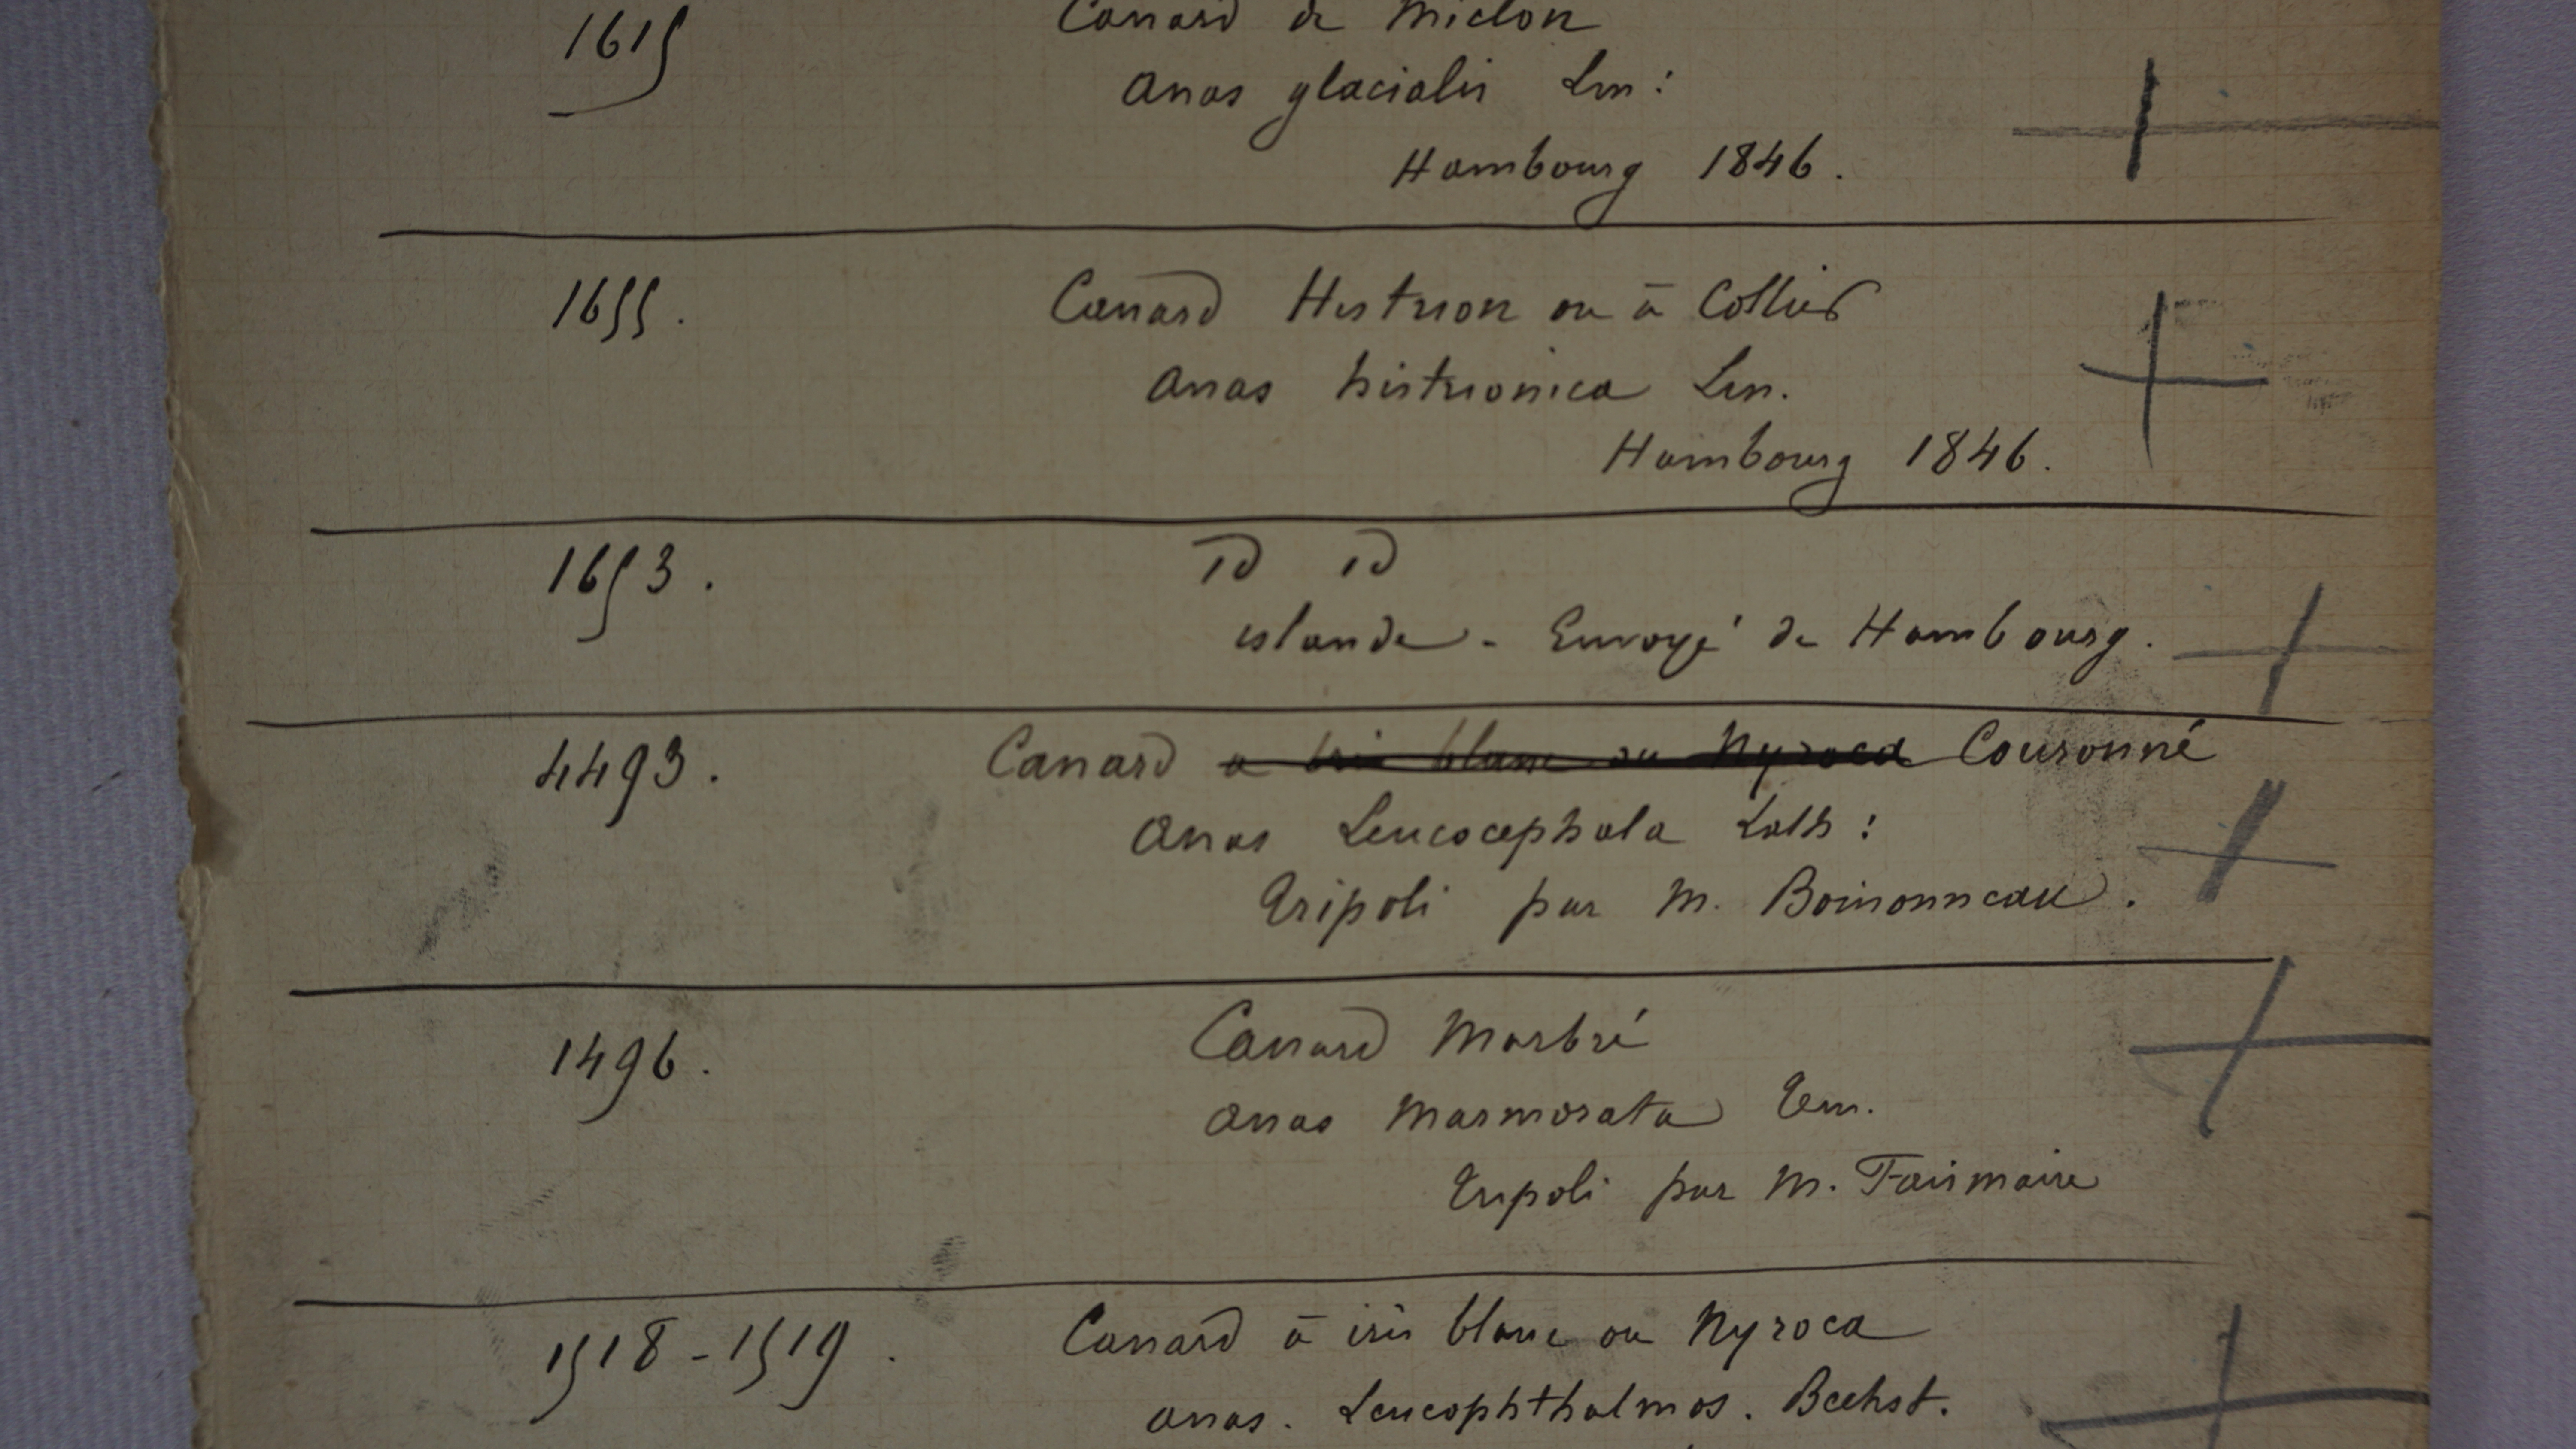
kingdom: Animalia
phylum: Chordata
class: Aves
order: Anseriformes
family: Anatidae
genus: Histrionicus
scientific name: Histrionicus histrionicus
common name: Harlequin duck
